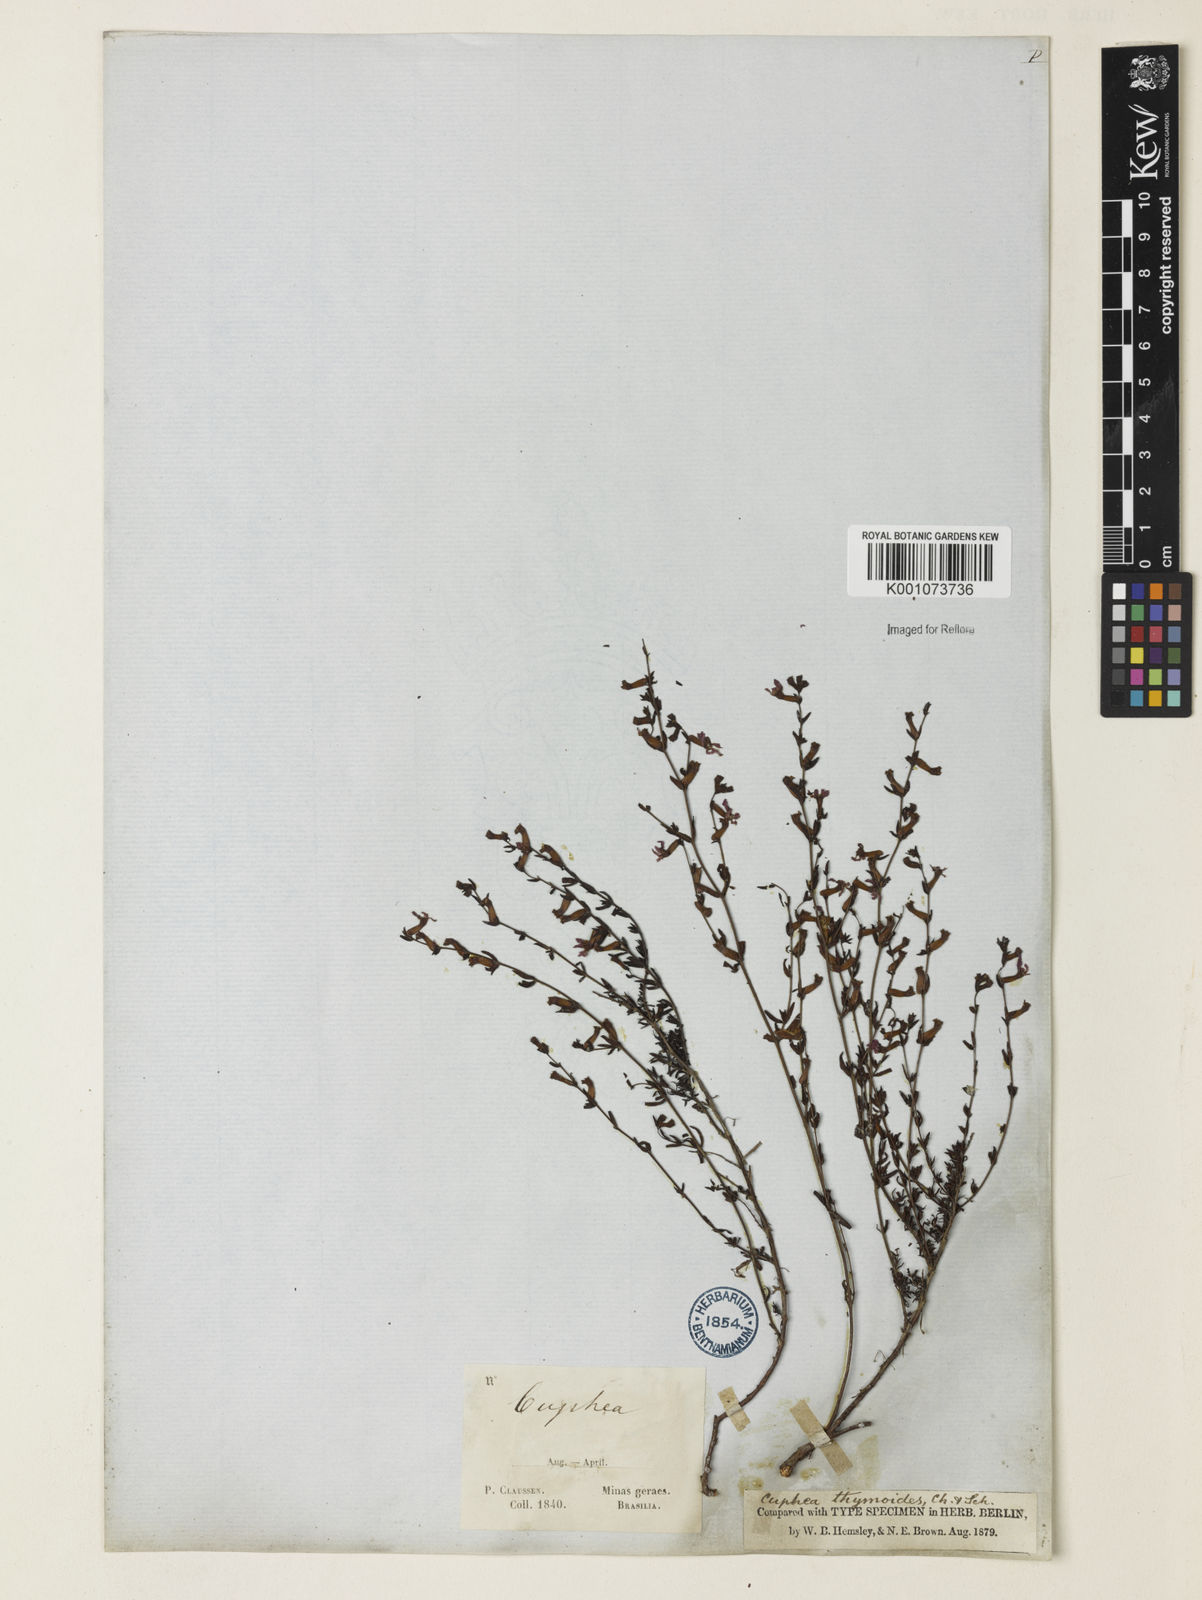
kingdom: Plantae
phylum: Tracheophyta
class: Magnoliopsida
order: Myrtales
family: Lythraceae
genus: Cuphea
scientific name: Cuphea thymoides
